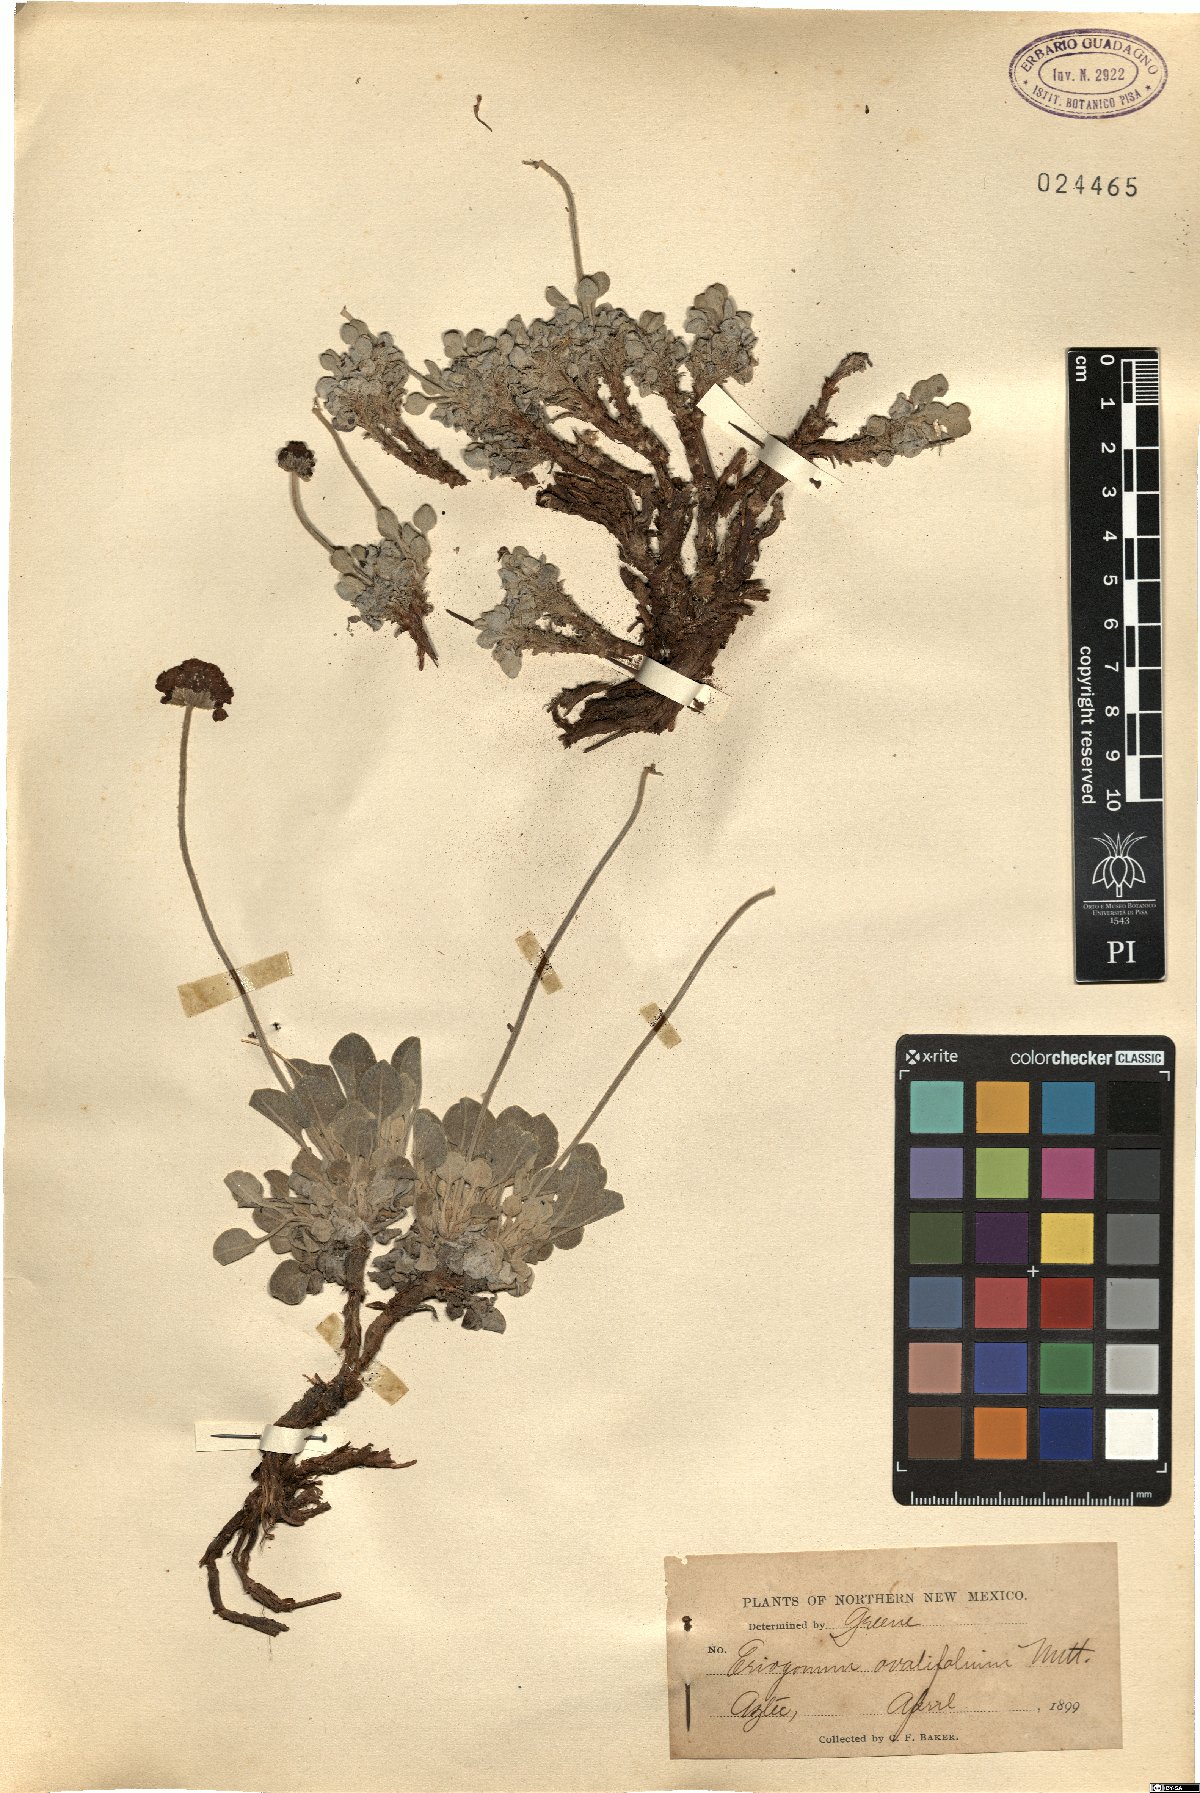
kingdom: Plantae
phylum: Tracheophyta
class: Magnoliopsida
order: Caryophyllales
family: Polygonaceae
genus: Eriogonum
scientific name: Eriogonum douglasii
